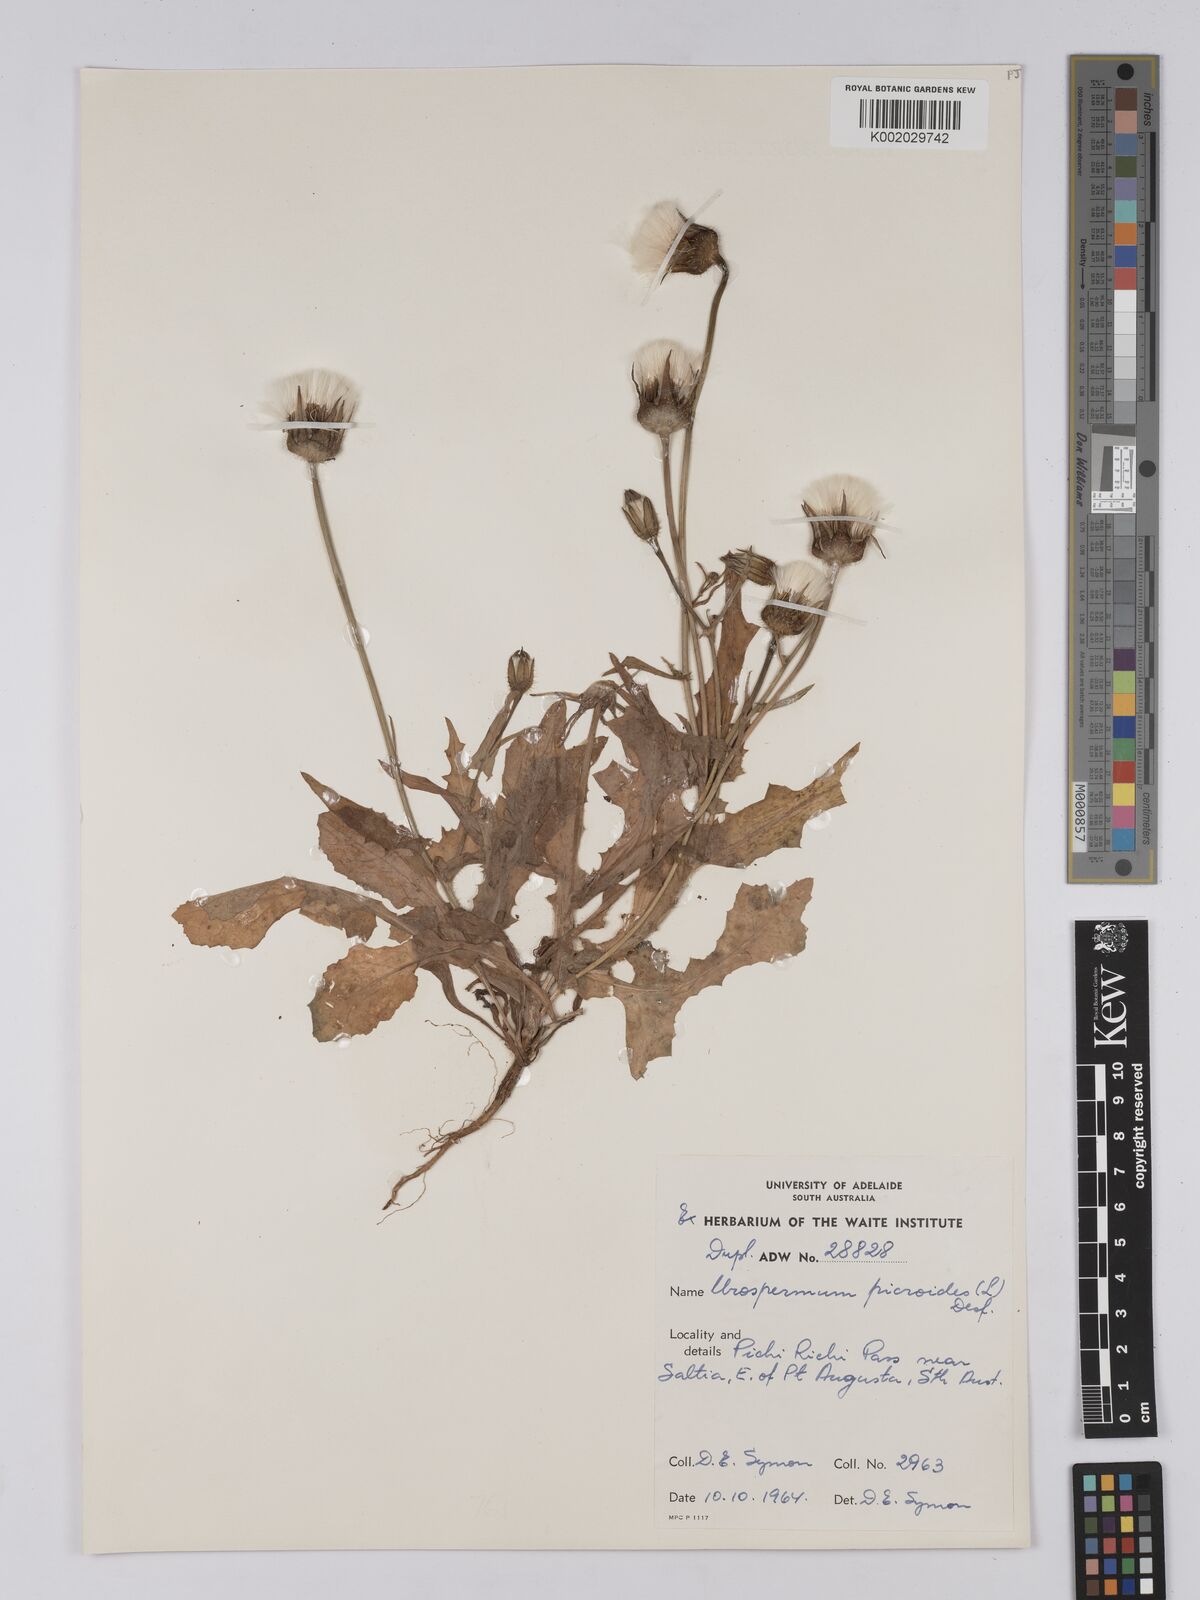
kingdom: Plantae
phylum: Tracheophyta
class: Magnoliopsida
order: Asterales
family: Asteraceae
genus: Urospermum
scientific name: Urospermum picroides
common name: False hawkbit
